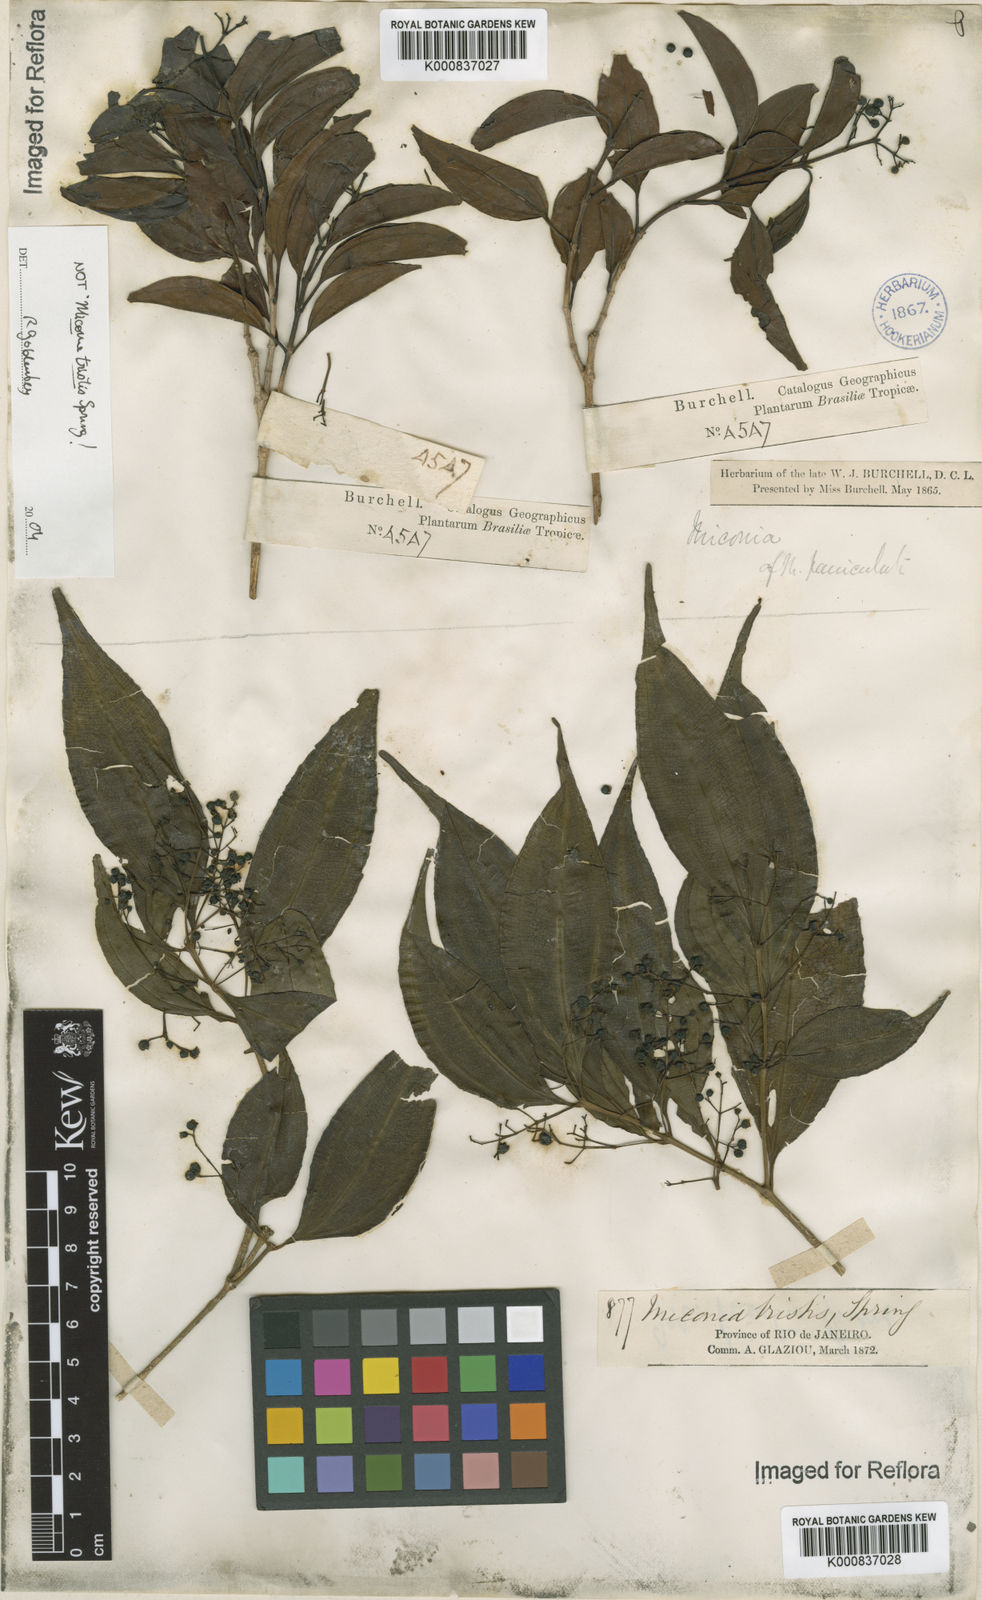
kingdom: Plantae
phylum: Tracheophyta
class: Magnoliopsida
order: Myrtales
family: Melastomataceae
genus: Miconia
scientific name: Miconia
